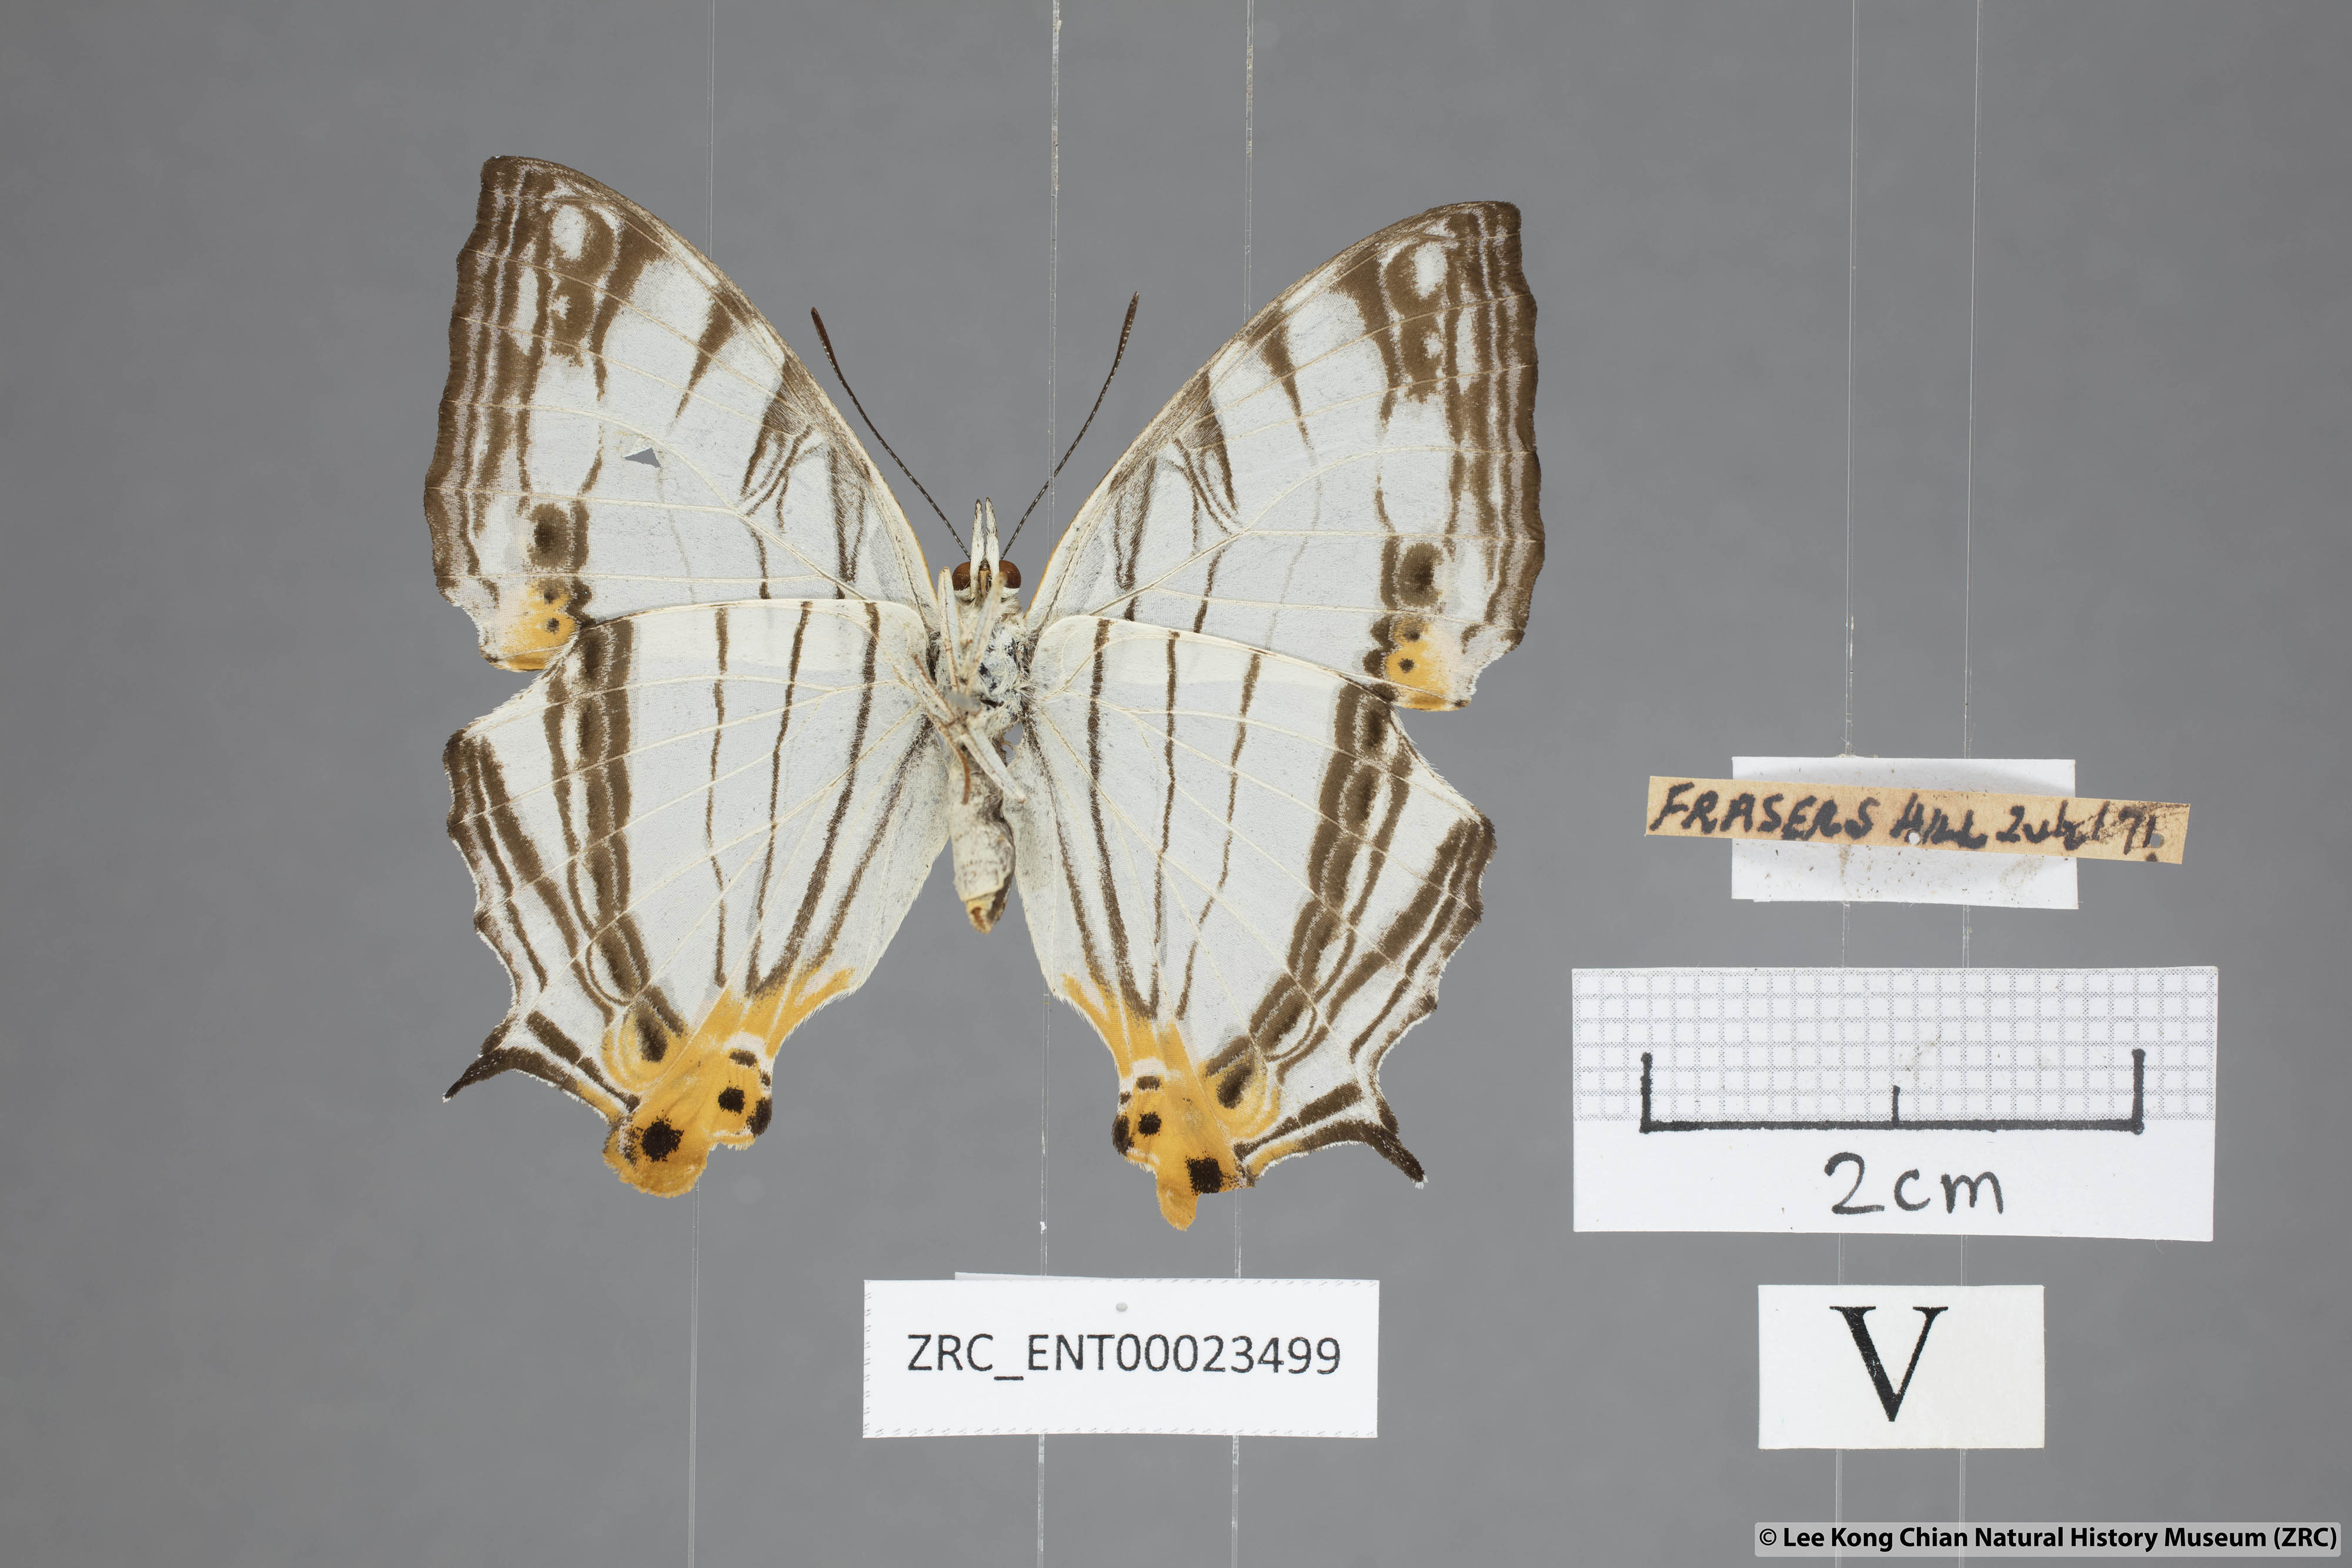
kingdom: Animalia
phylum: Arthropoda
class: Insecta
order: Lepidoptera
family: Nymphalidae
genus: Cyrestis
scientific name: Cyrestis maenalis
